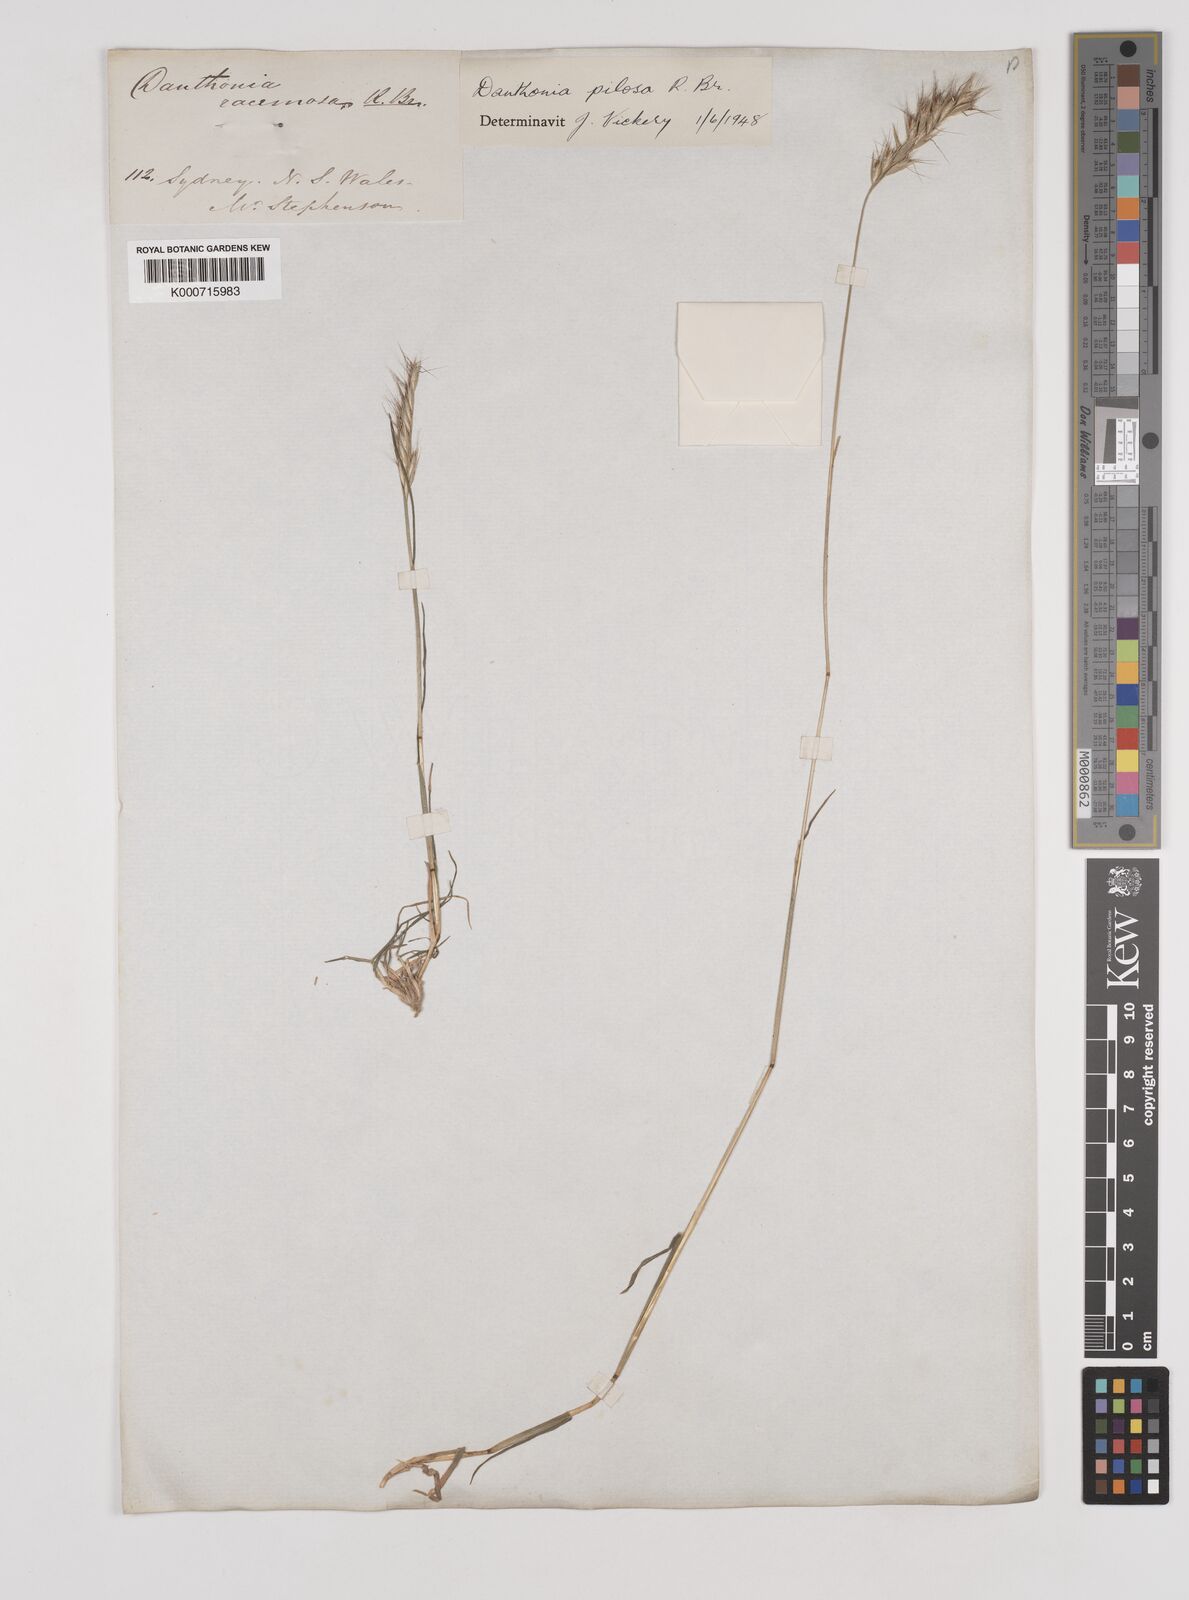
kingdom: Plantae
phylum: Tracheophyta
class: Liliopsida
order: Poales
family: Poaceae
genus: Rytidosperma
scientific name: Rytidosperma pilosum
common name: Hairy wallaby grass
